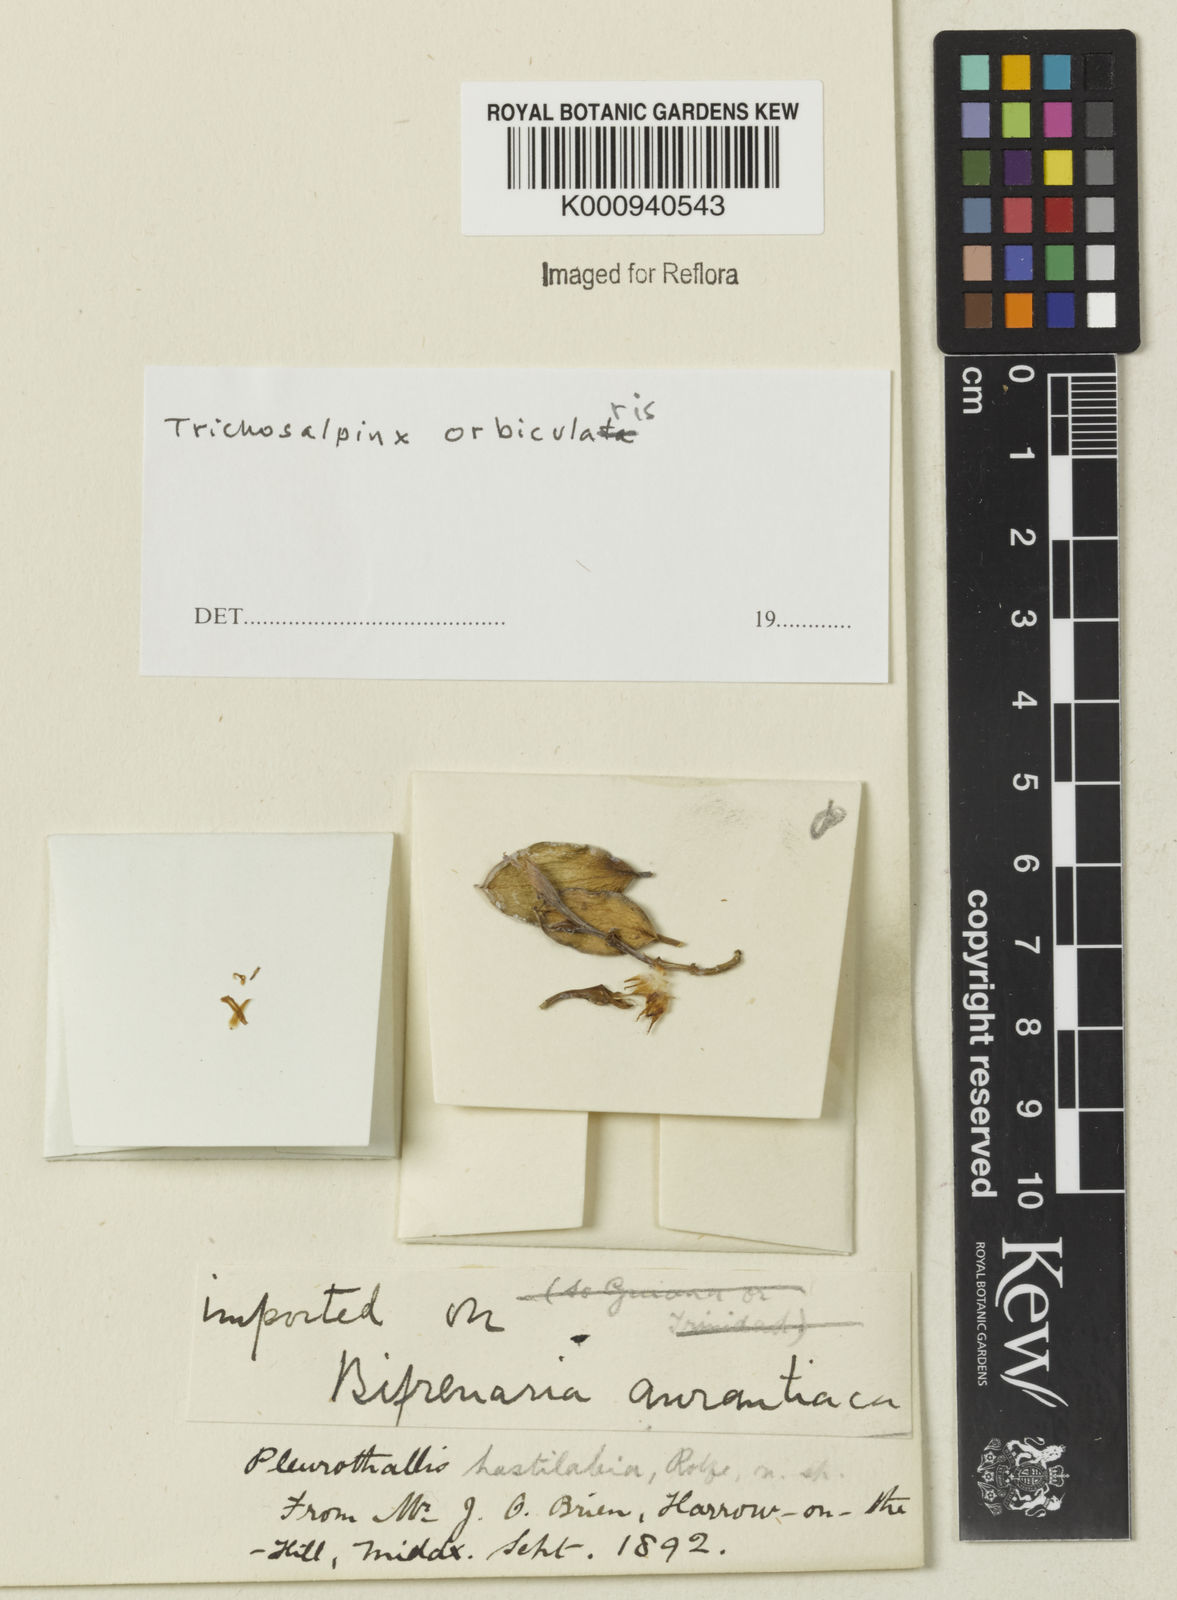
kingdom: Plantae
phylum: Tracheophyta
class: Liliopsida
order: Asparagales
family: Orchidaceae
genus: Trichosalpinx
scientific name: Trichosalpinx orbicularis
